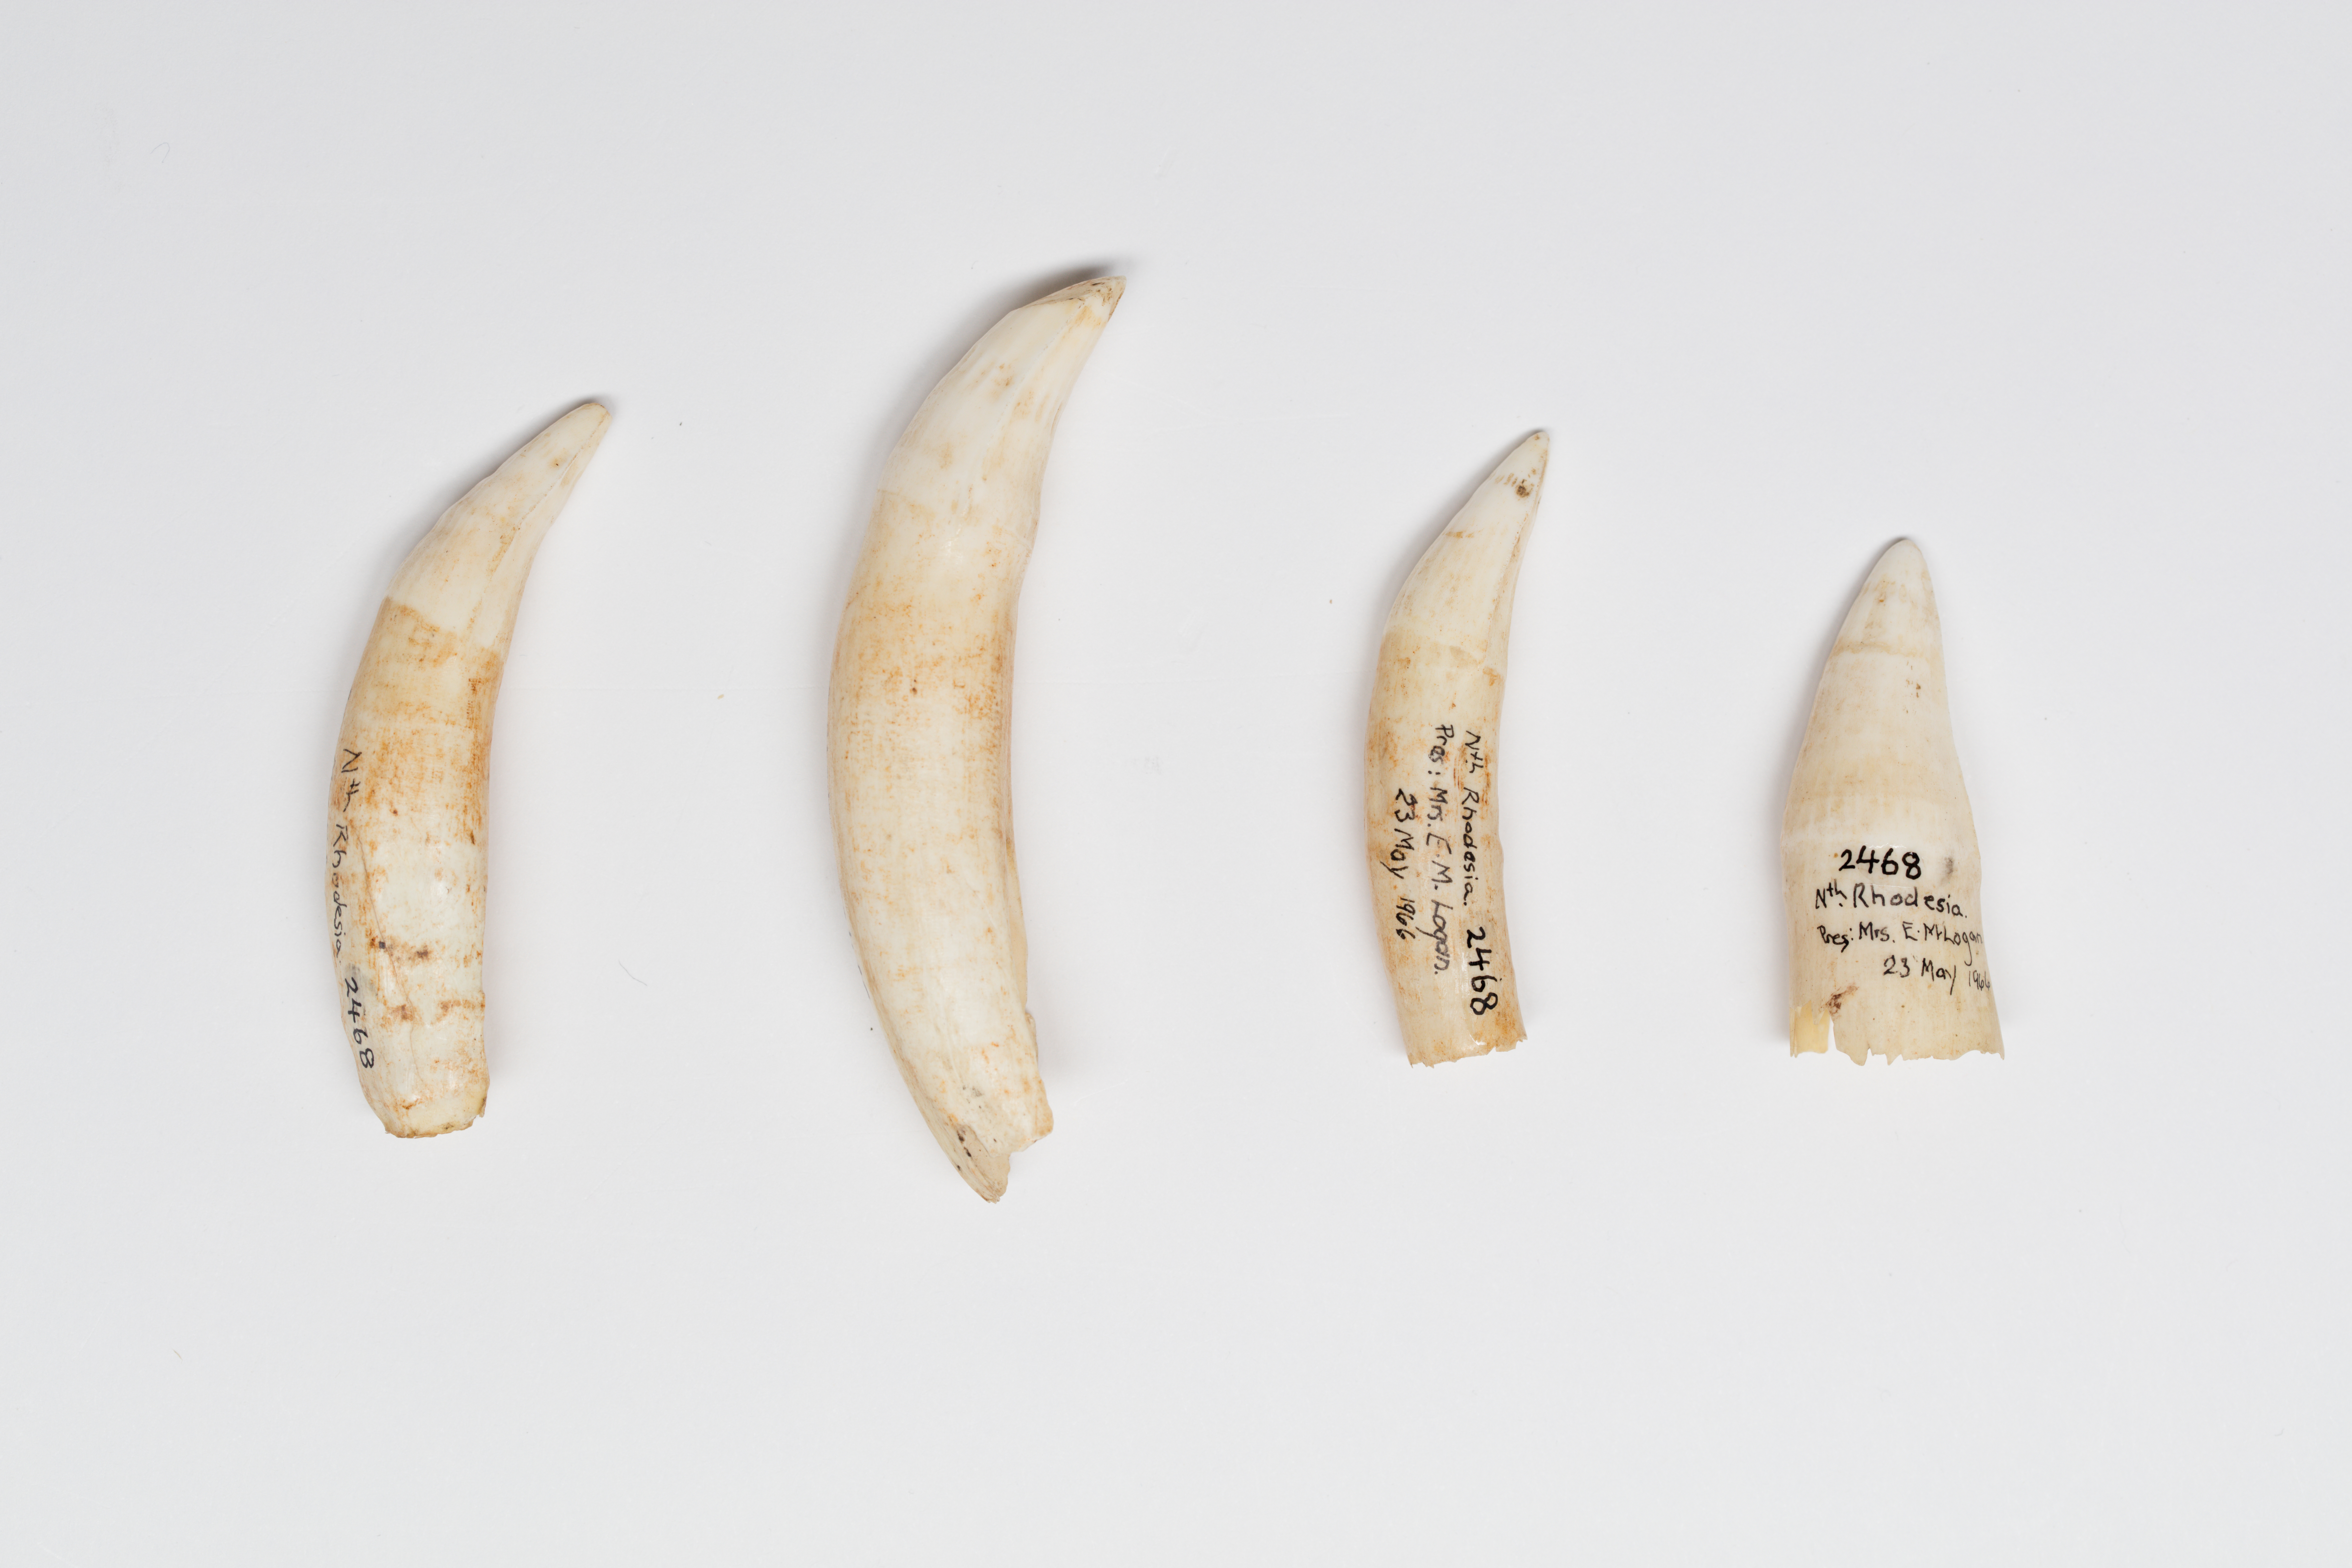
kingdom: Animalia
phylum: Chordata
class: Crocodylia
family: Crocodylidae
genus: Crocodylus
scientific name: Crocodylus niloticus
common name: Nile crocodile
